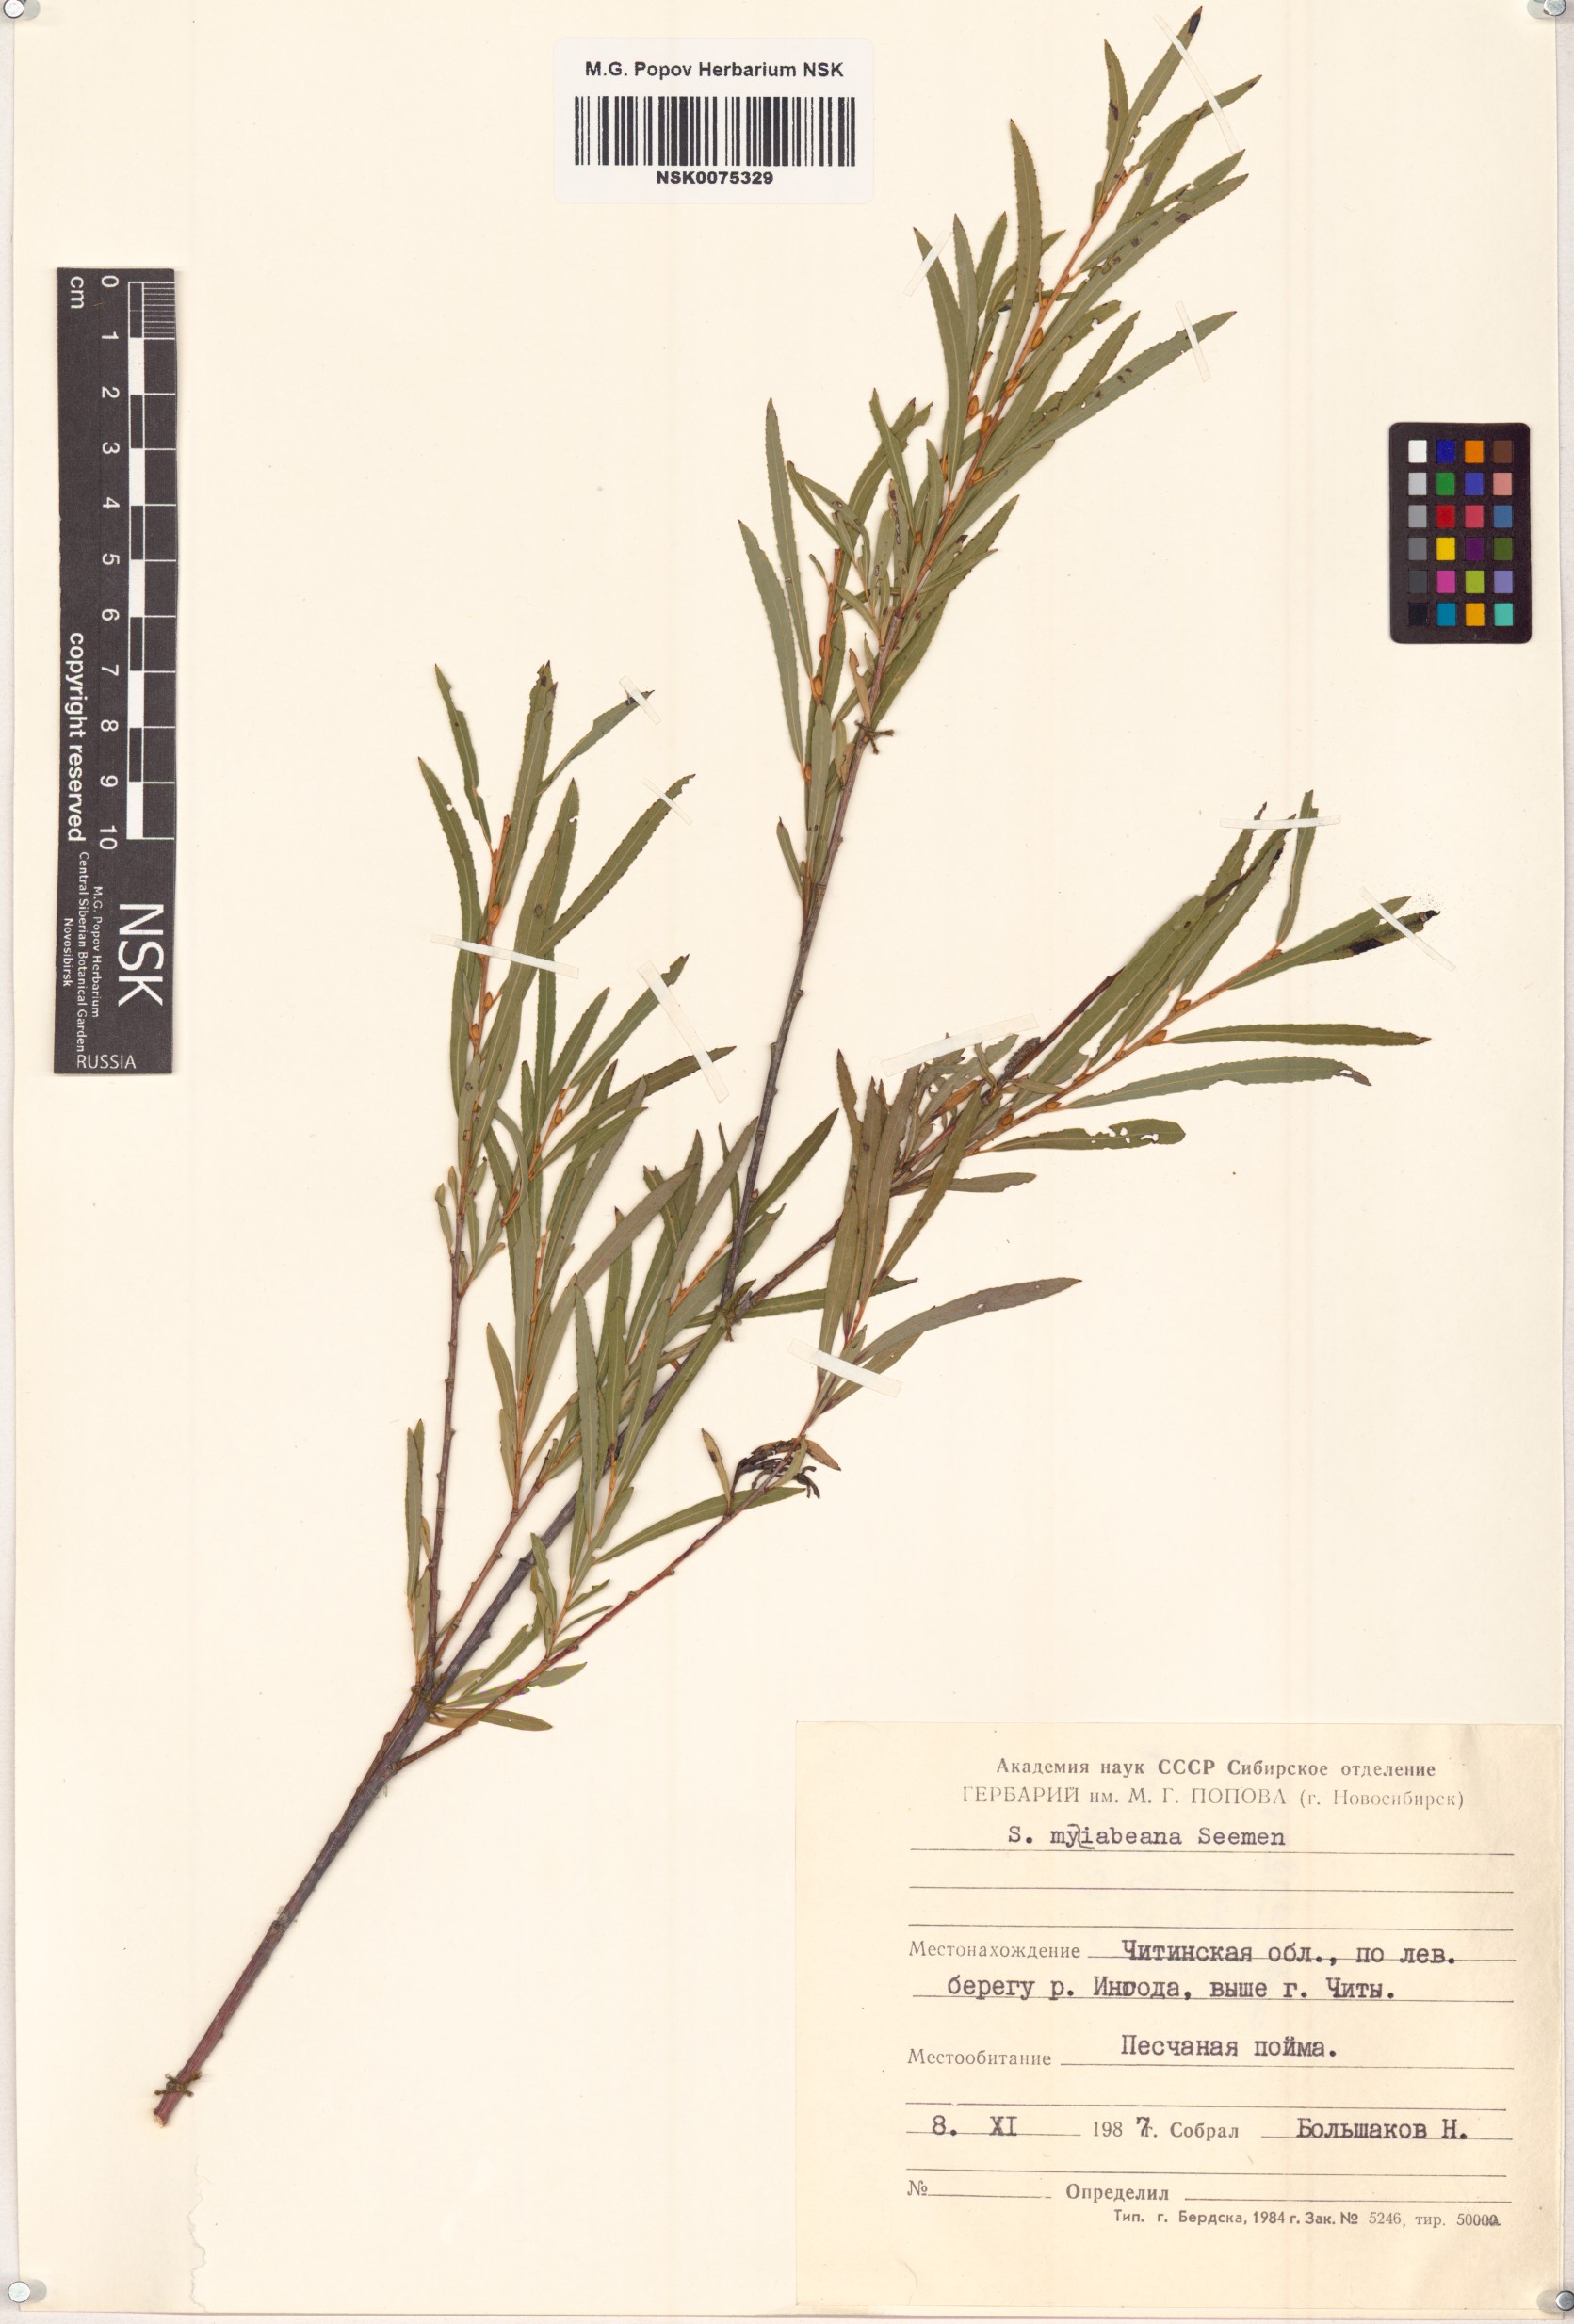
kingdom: Plantae
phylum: Tracheophyta
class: Magnoliopsida
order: Malpighiales
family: Salicaceae
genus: Salix
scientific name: Salix miyabeana
